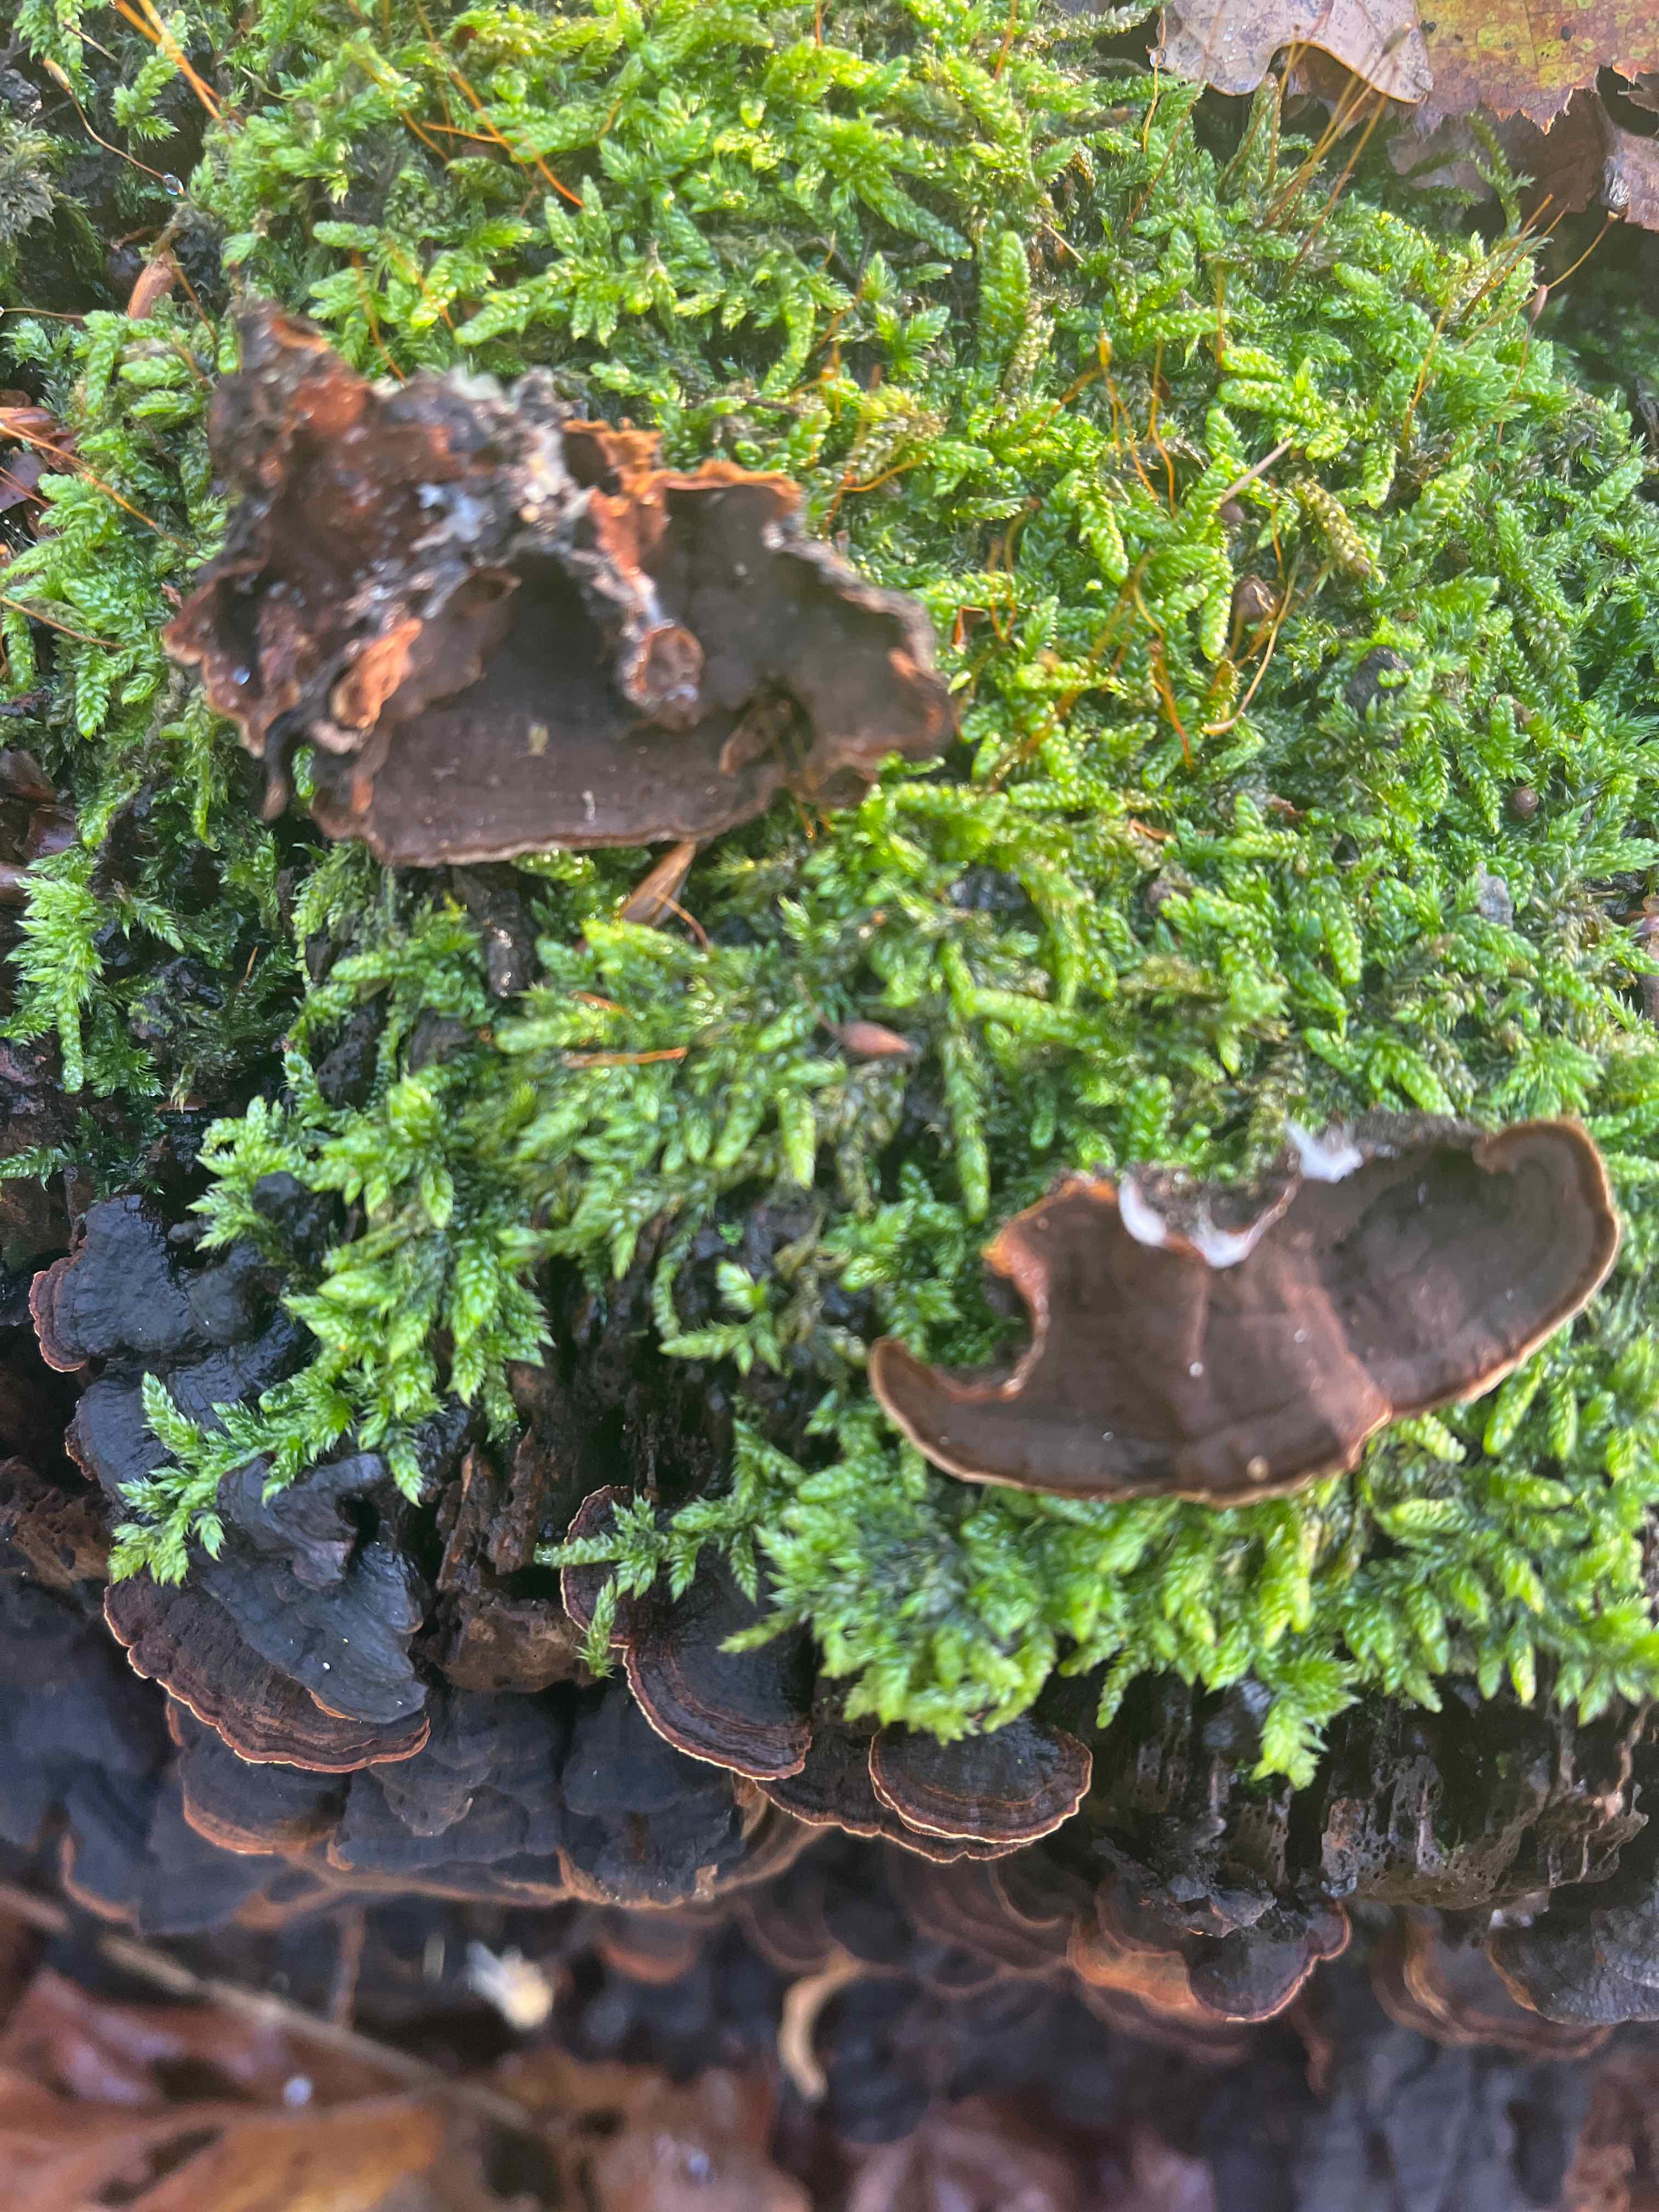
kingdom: Fungi
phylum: Basidiomycota
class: Agaricomycetes
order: Hymenochaetales
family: Hymenochaetaceae
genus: Hymenochaete
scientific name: Hymenochaete rubiginosa
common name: stiv ruslædersvamp
